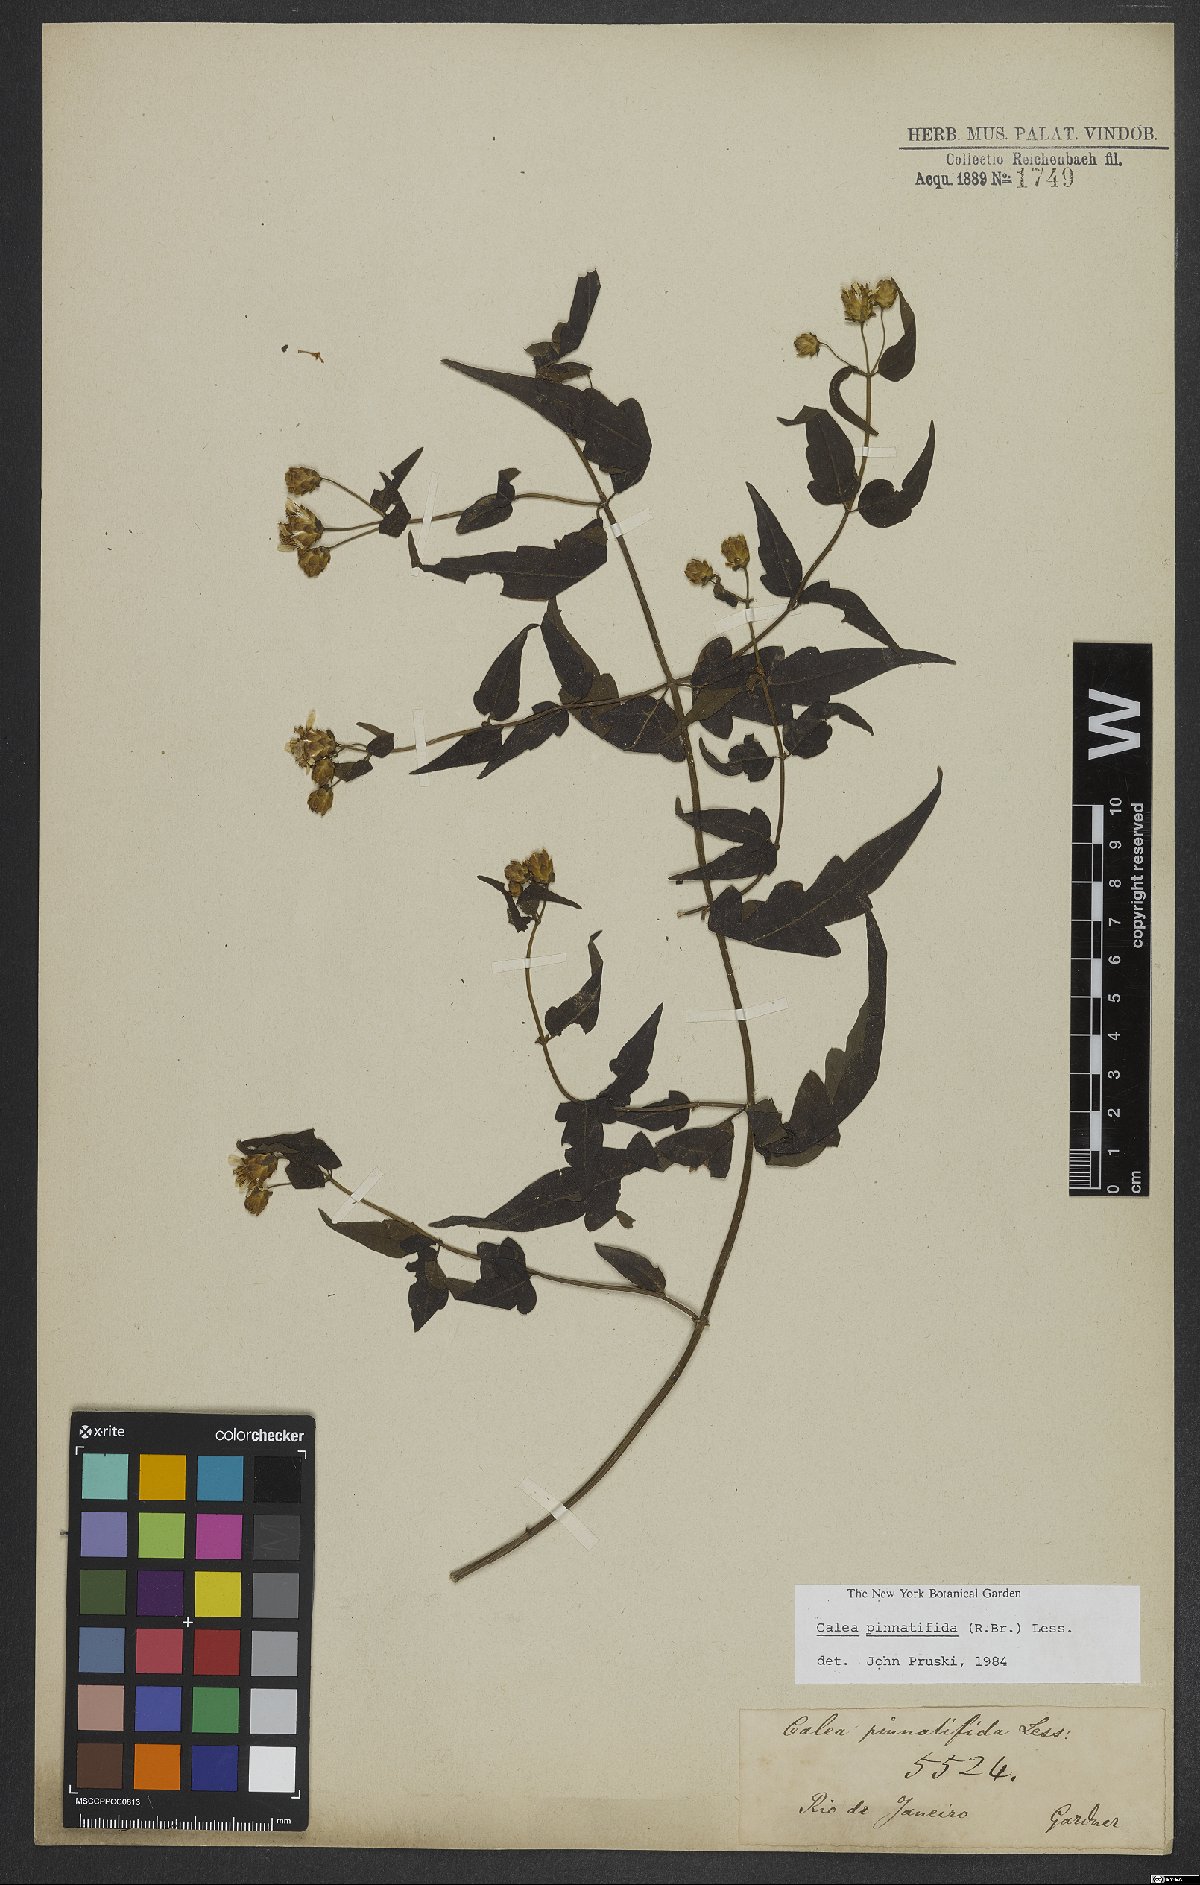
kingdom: Plantae
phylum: Tracheophyta
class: Magnoliopsida
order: Asterales
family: Asteraceae
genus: Calea
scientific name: Calea pinnatifida
